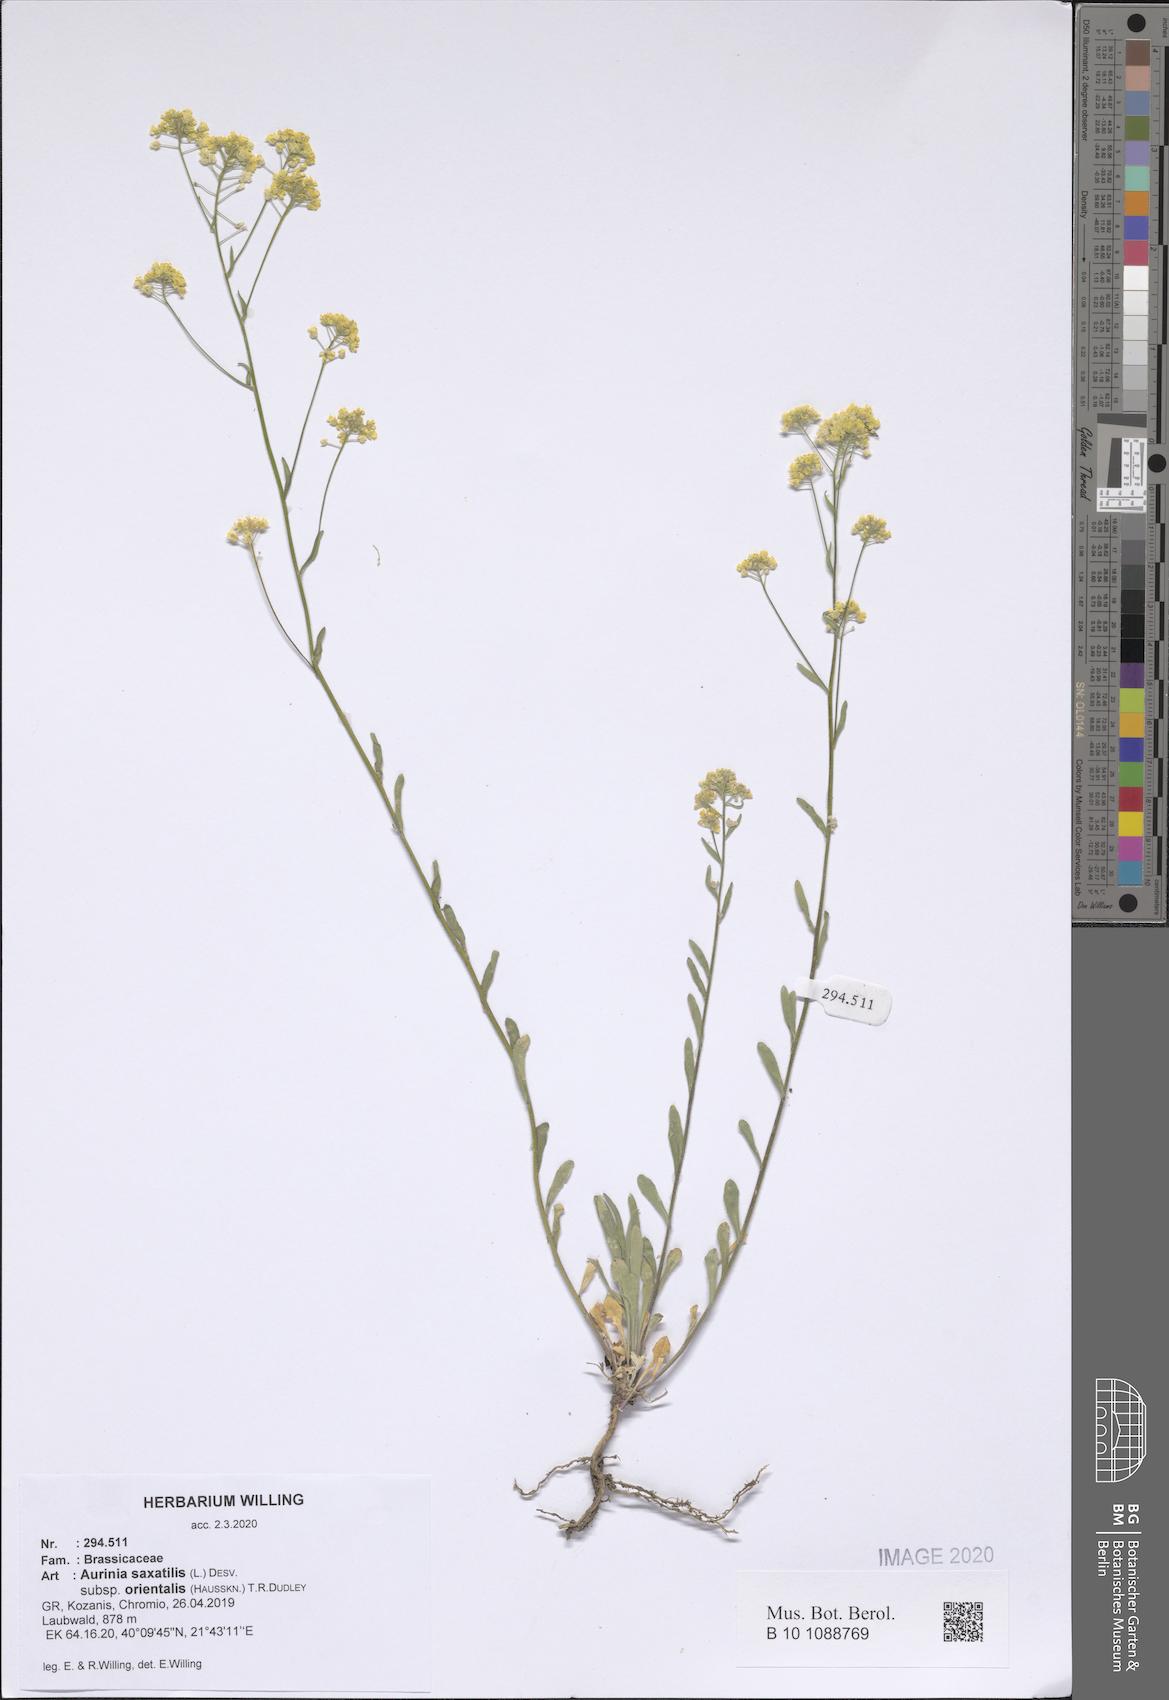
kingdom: Plantae
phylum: Tracheophyta
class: Magnoliopsida
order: Brassicales
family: Brassicaceae
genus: Aurinia
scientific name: Aurinia saxatilis
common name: Golden-tuft alyssum
